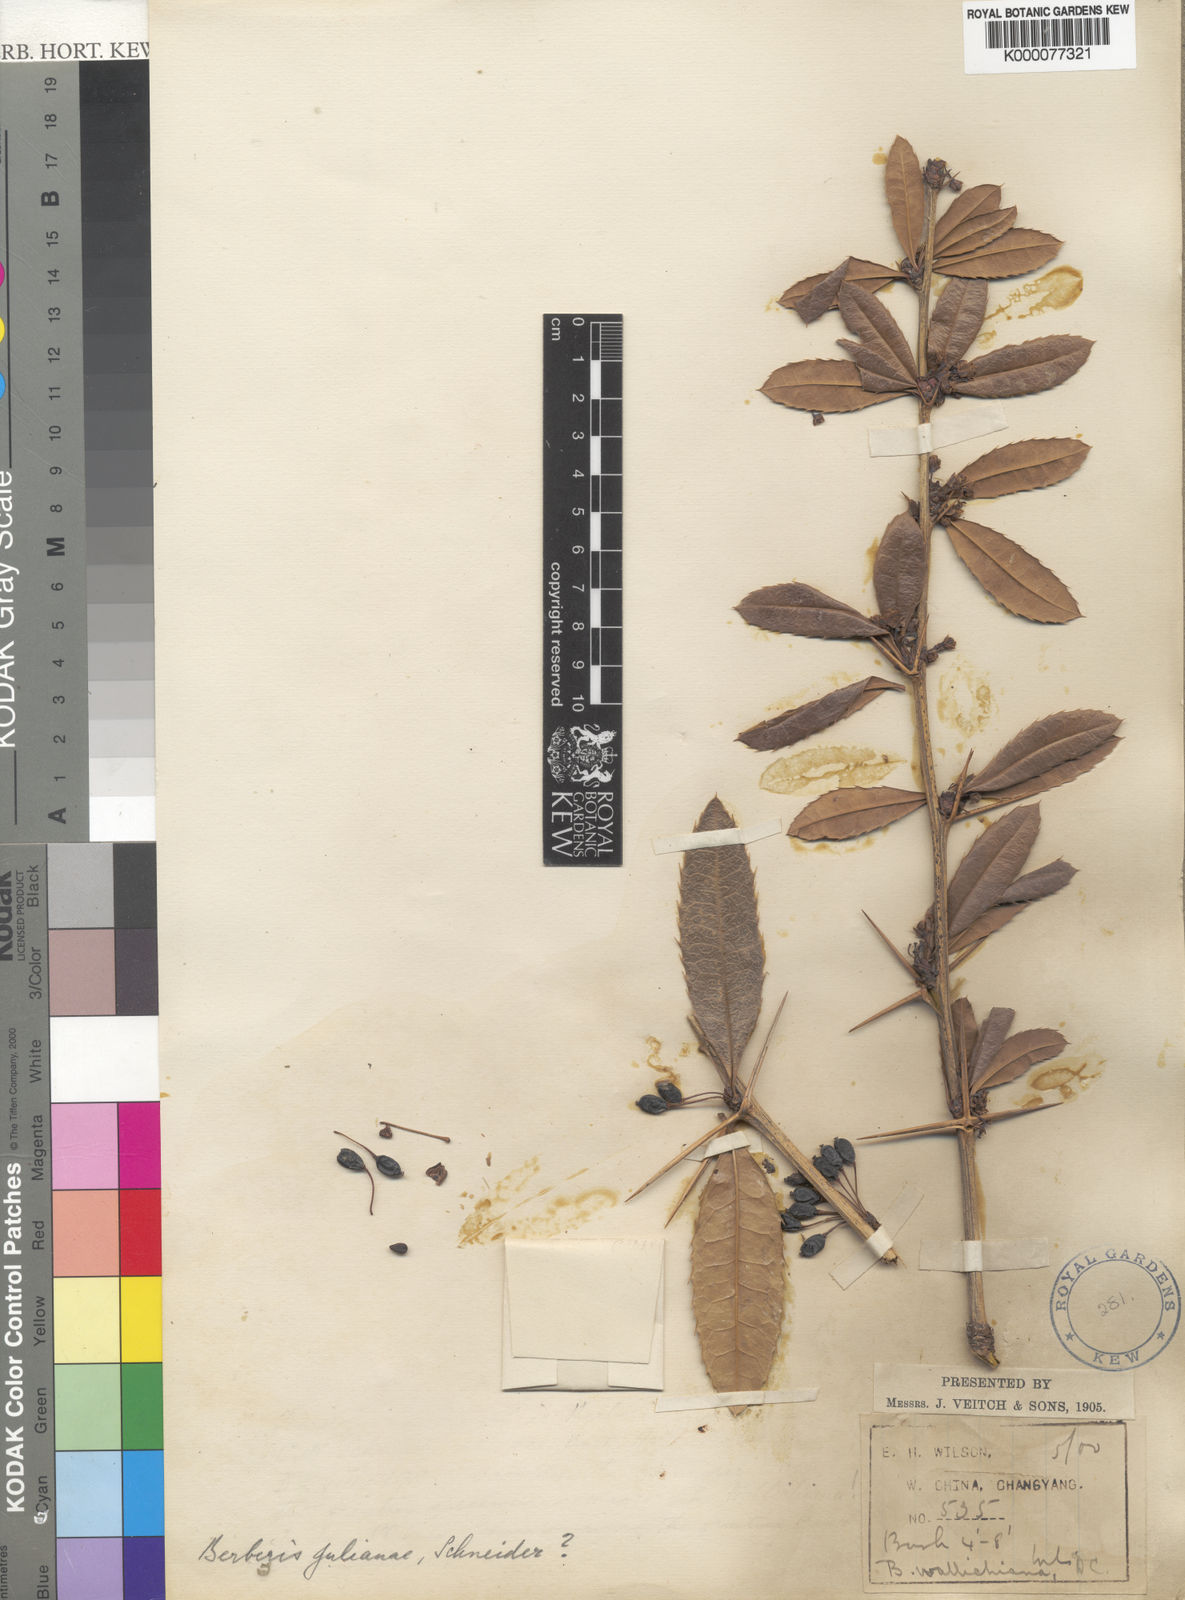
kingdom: Plantae
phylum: Tracheophyta
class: Magnoliopsida
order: Ranunculales
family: Berberidaceae
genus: Berberis
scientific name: Berberis julianae
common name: Wintergreen barberry
